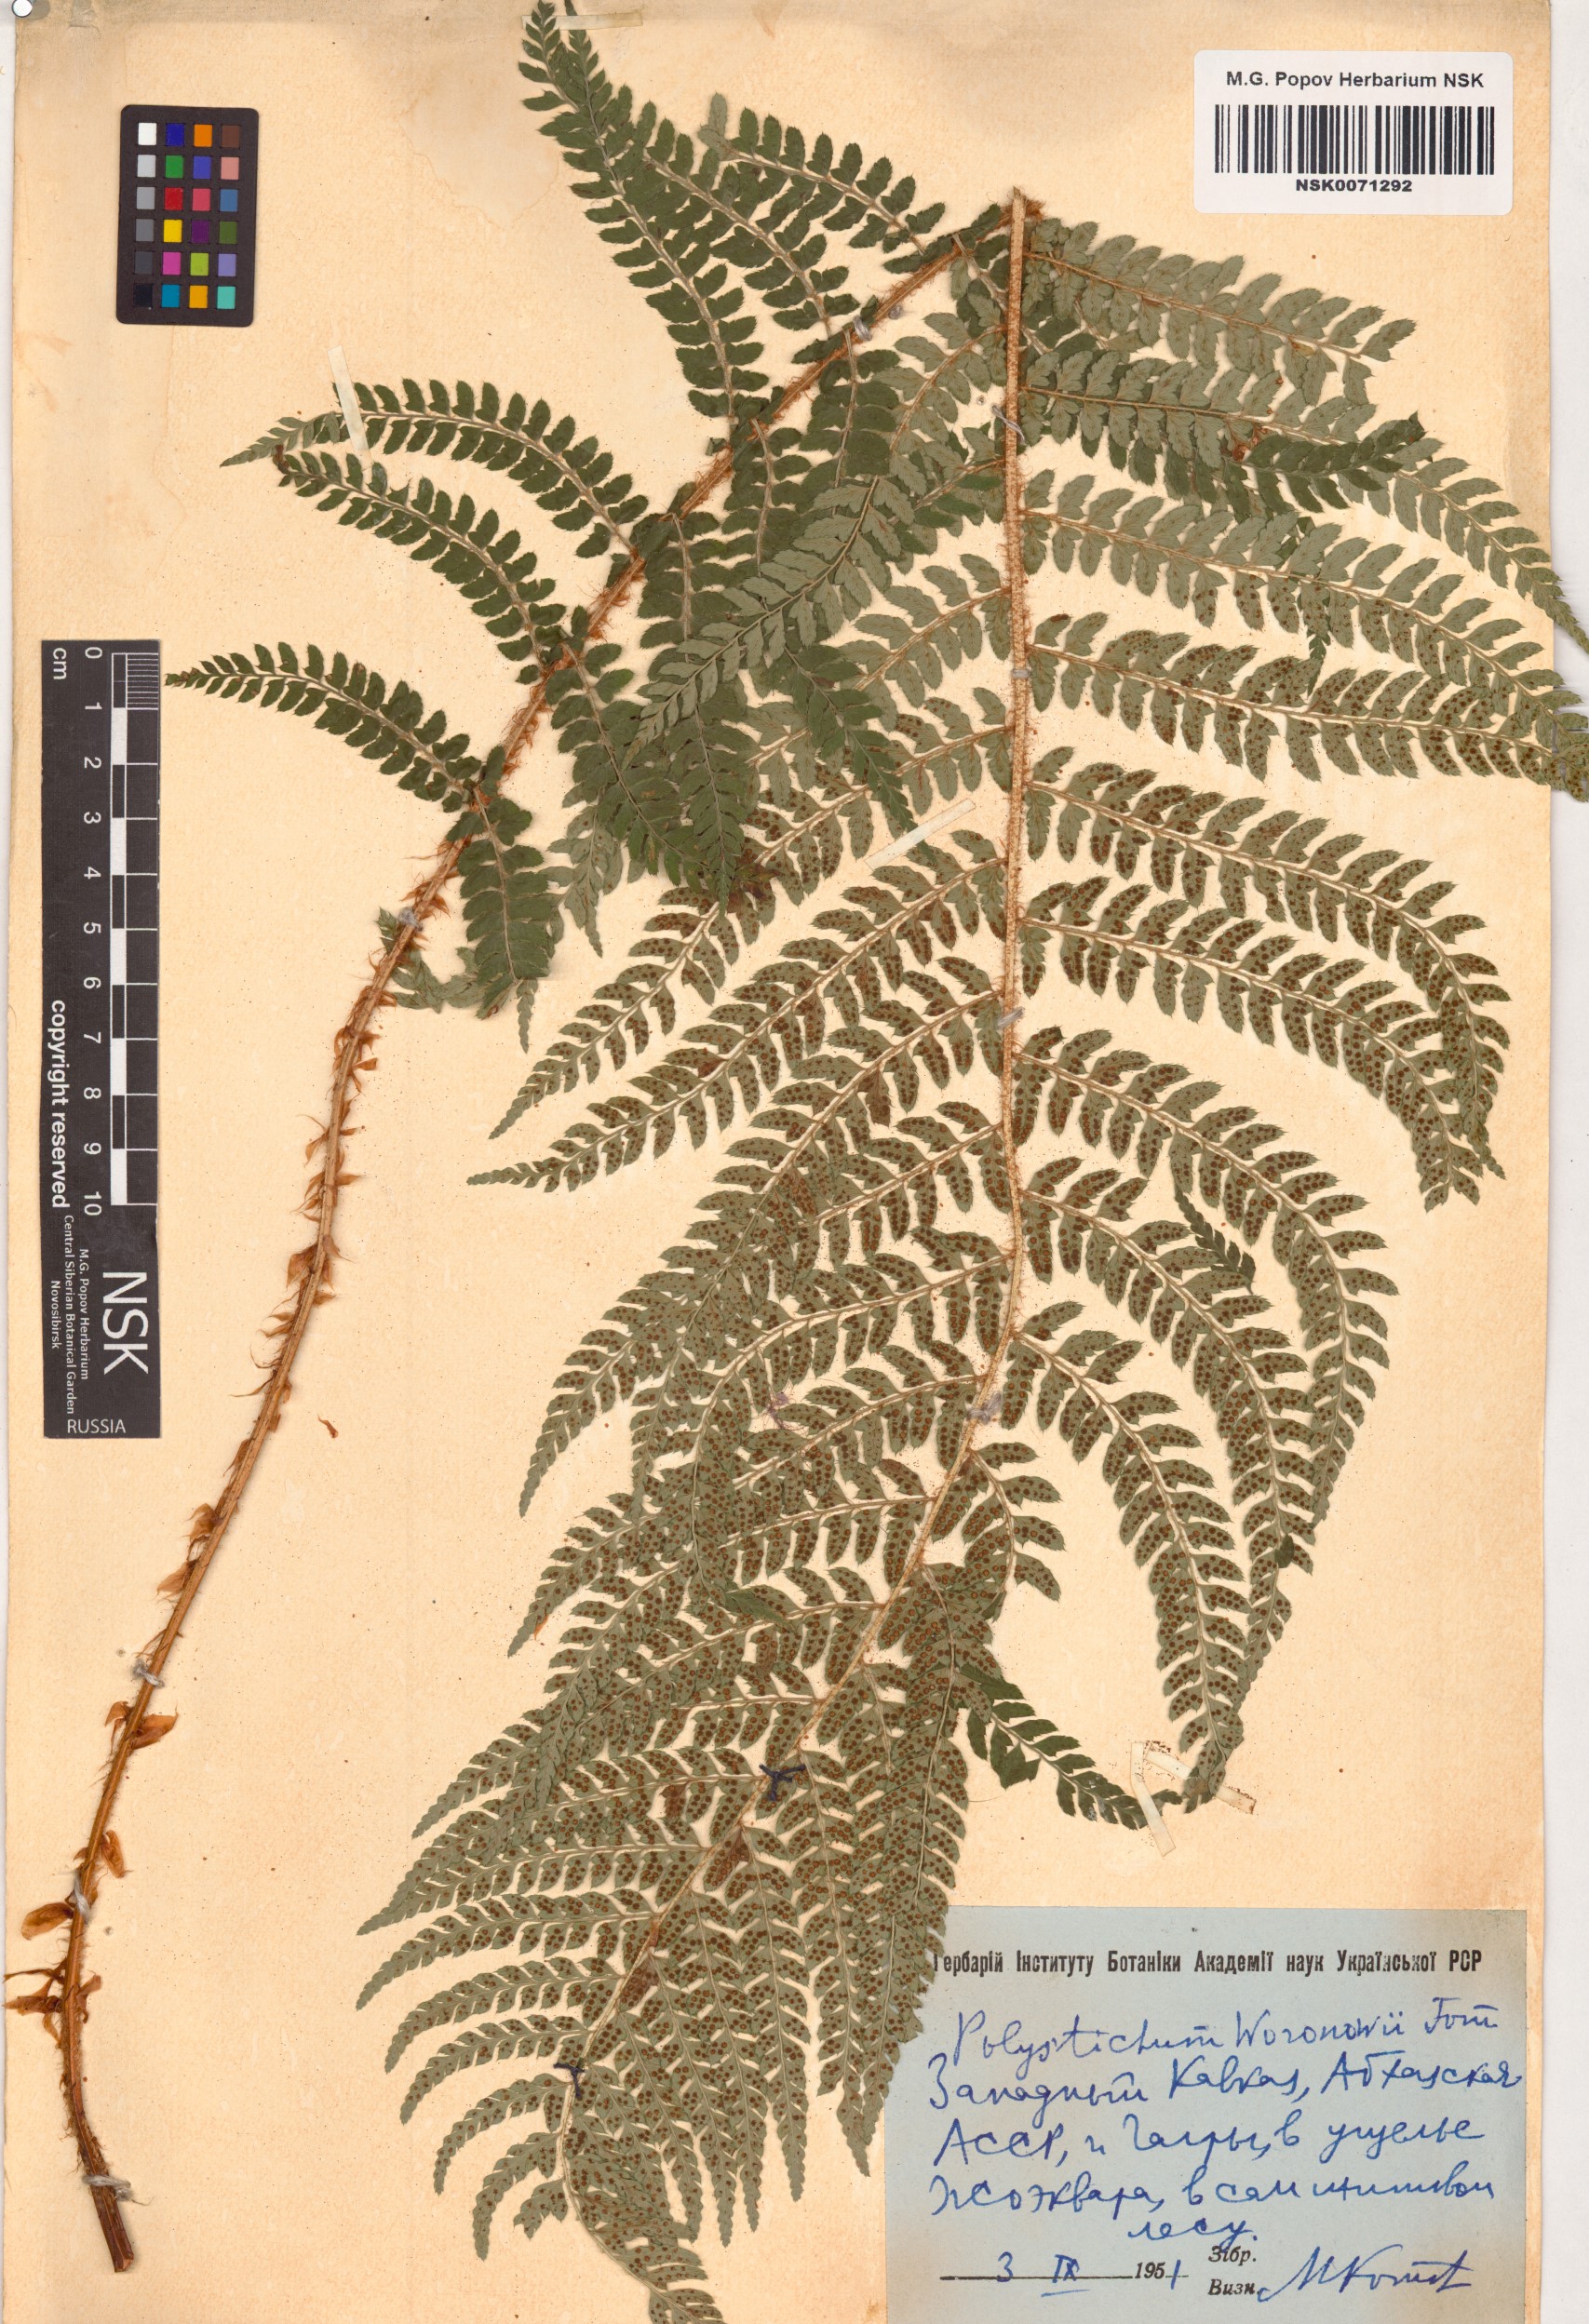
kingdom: Plantae
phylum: Tracheophyta
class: Polypodiopsida
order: Polypodiales
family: Dryopteridaceae
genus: Polystichum
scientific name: Polystichum woronowii
